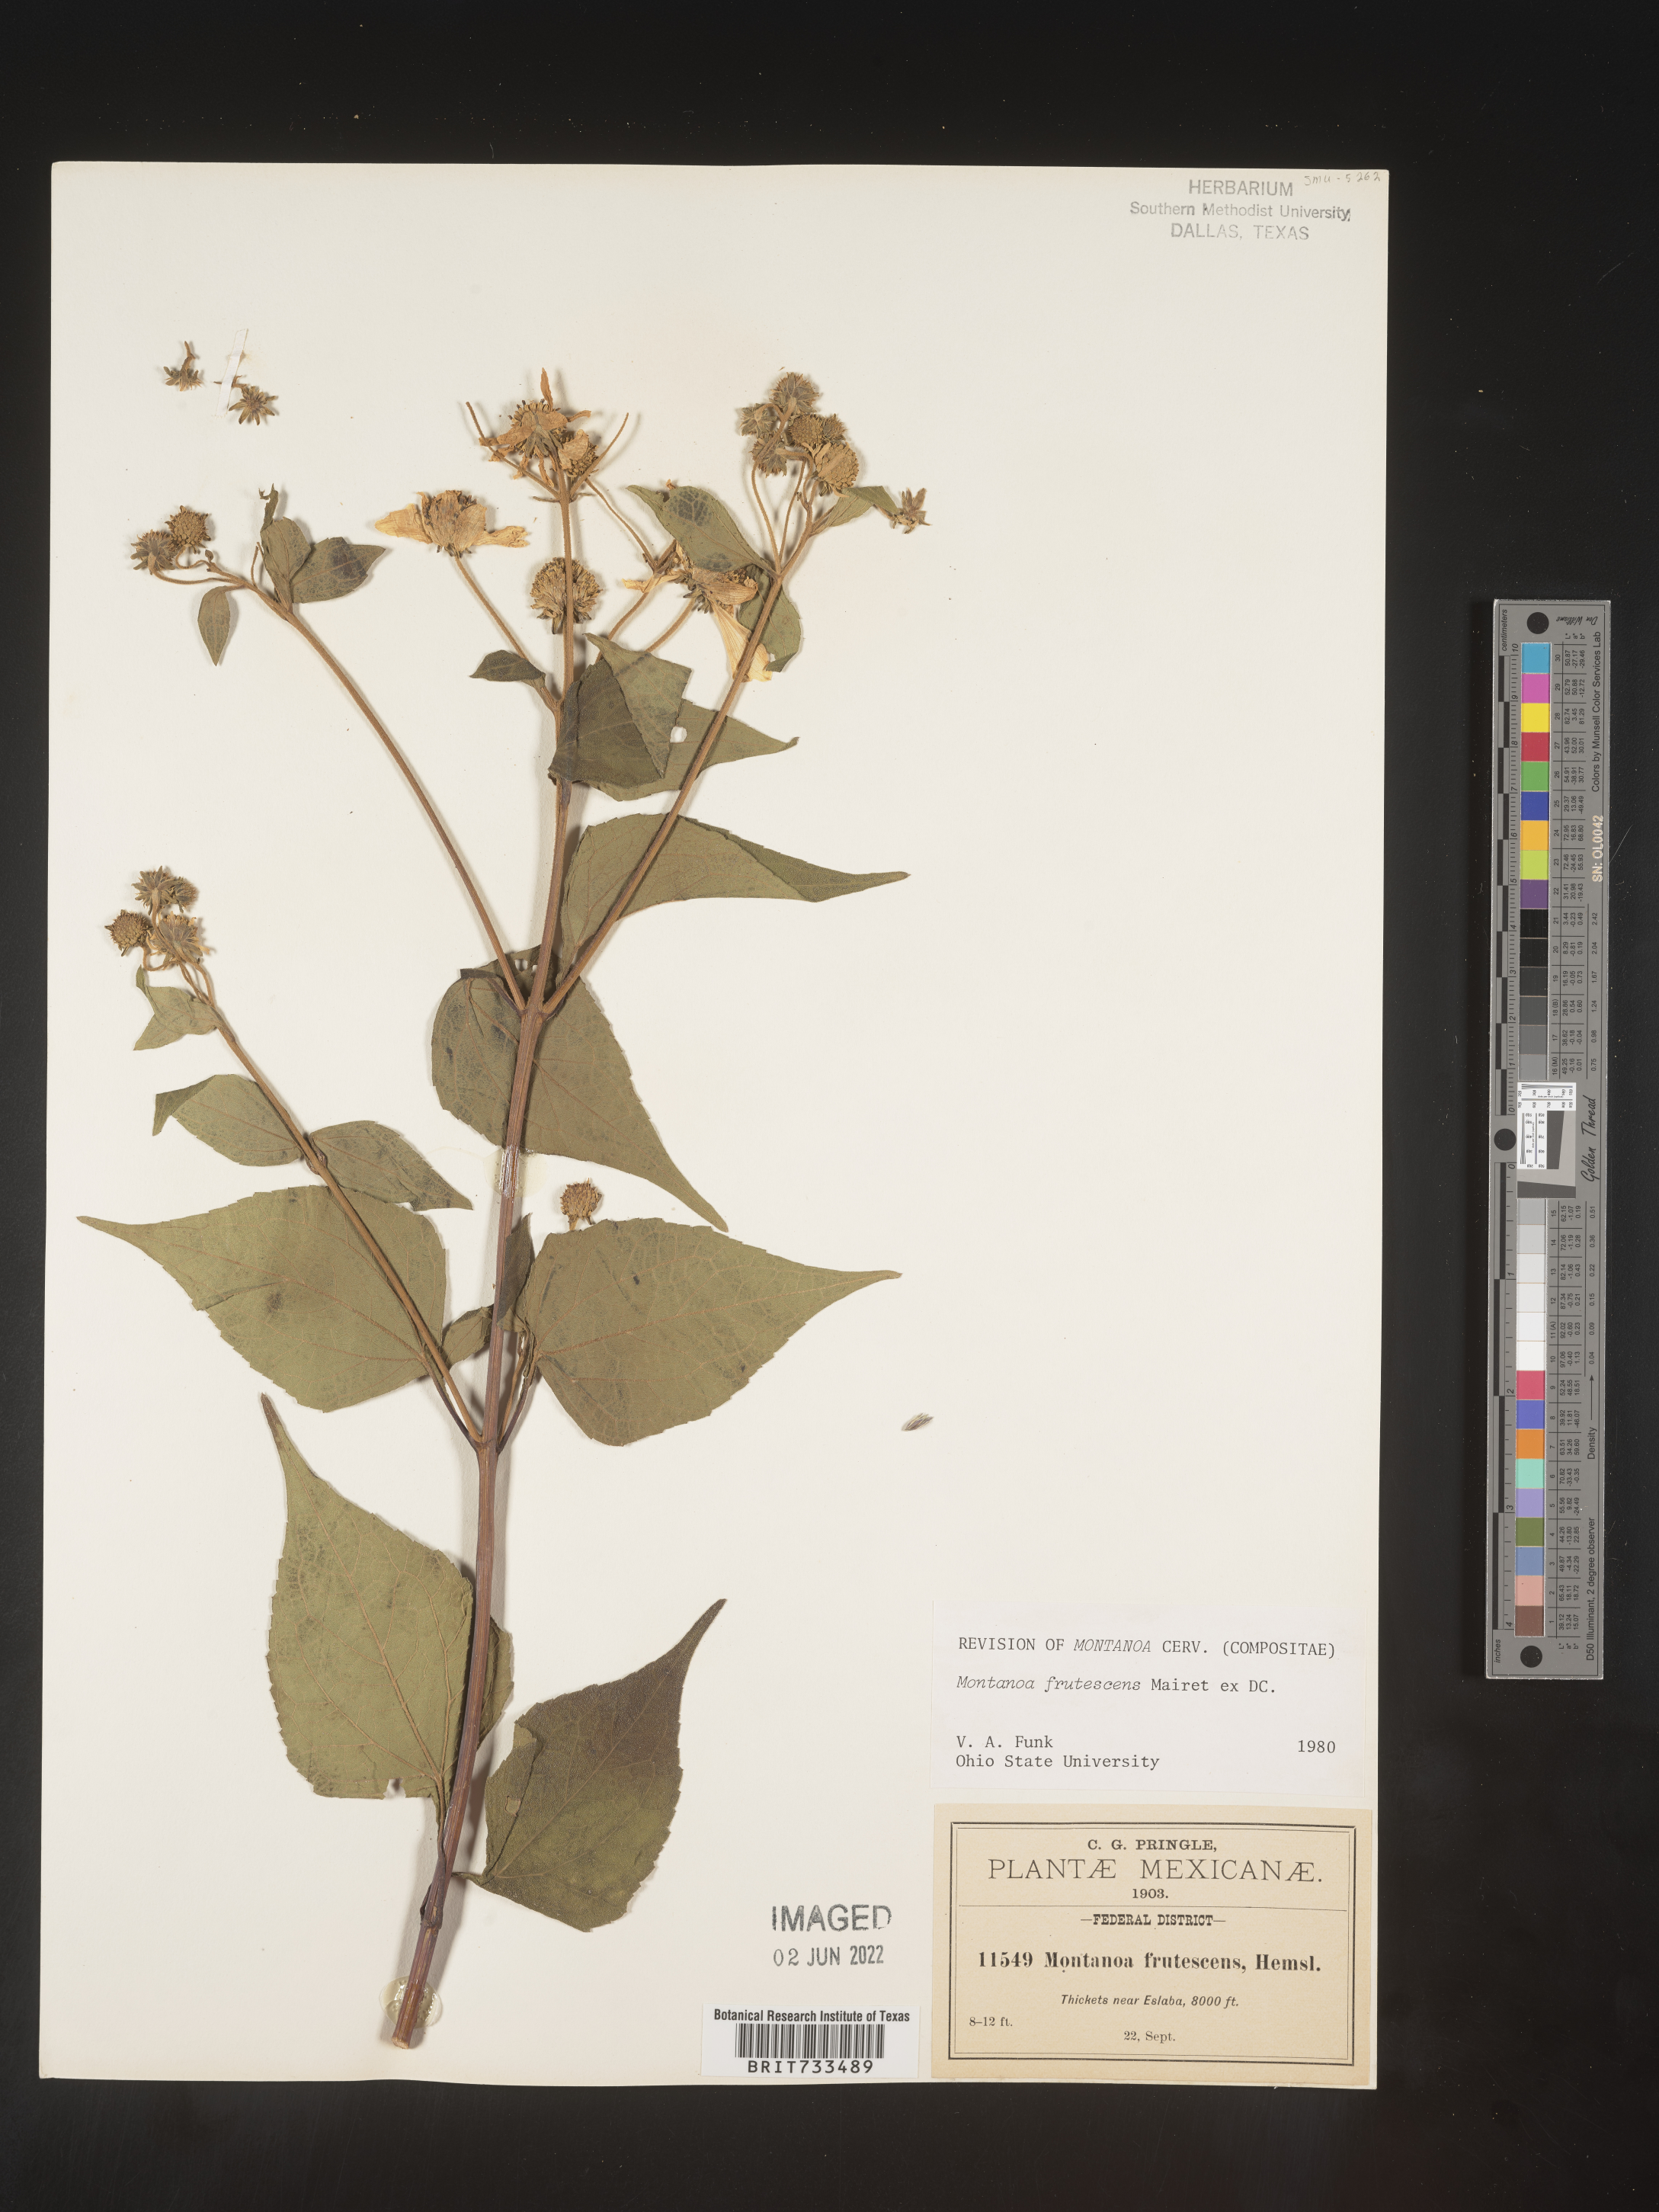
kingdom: Plantae
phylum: Tracheophyta
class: Magnoliopsida
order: Asterales
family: Asteraceae
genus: Montanoa
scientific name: Montanoa
